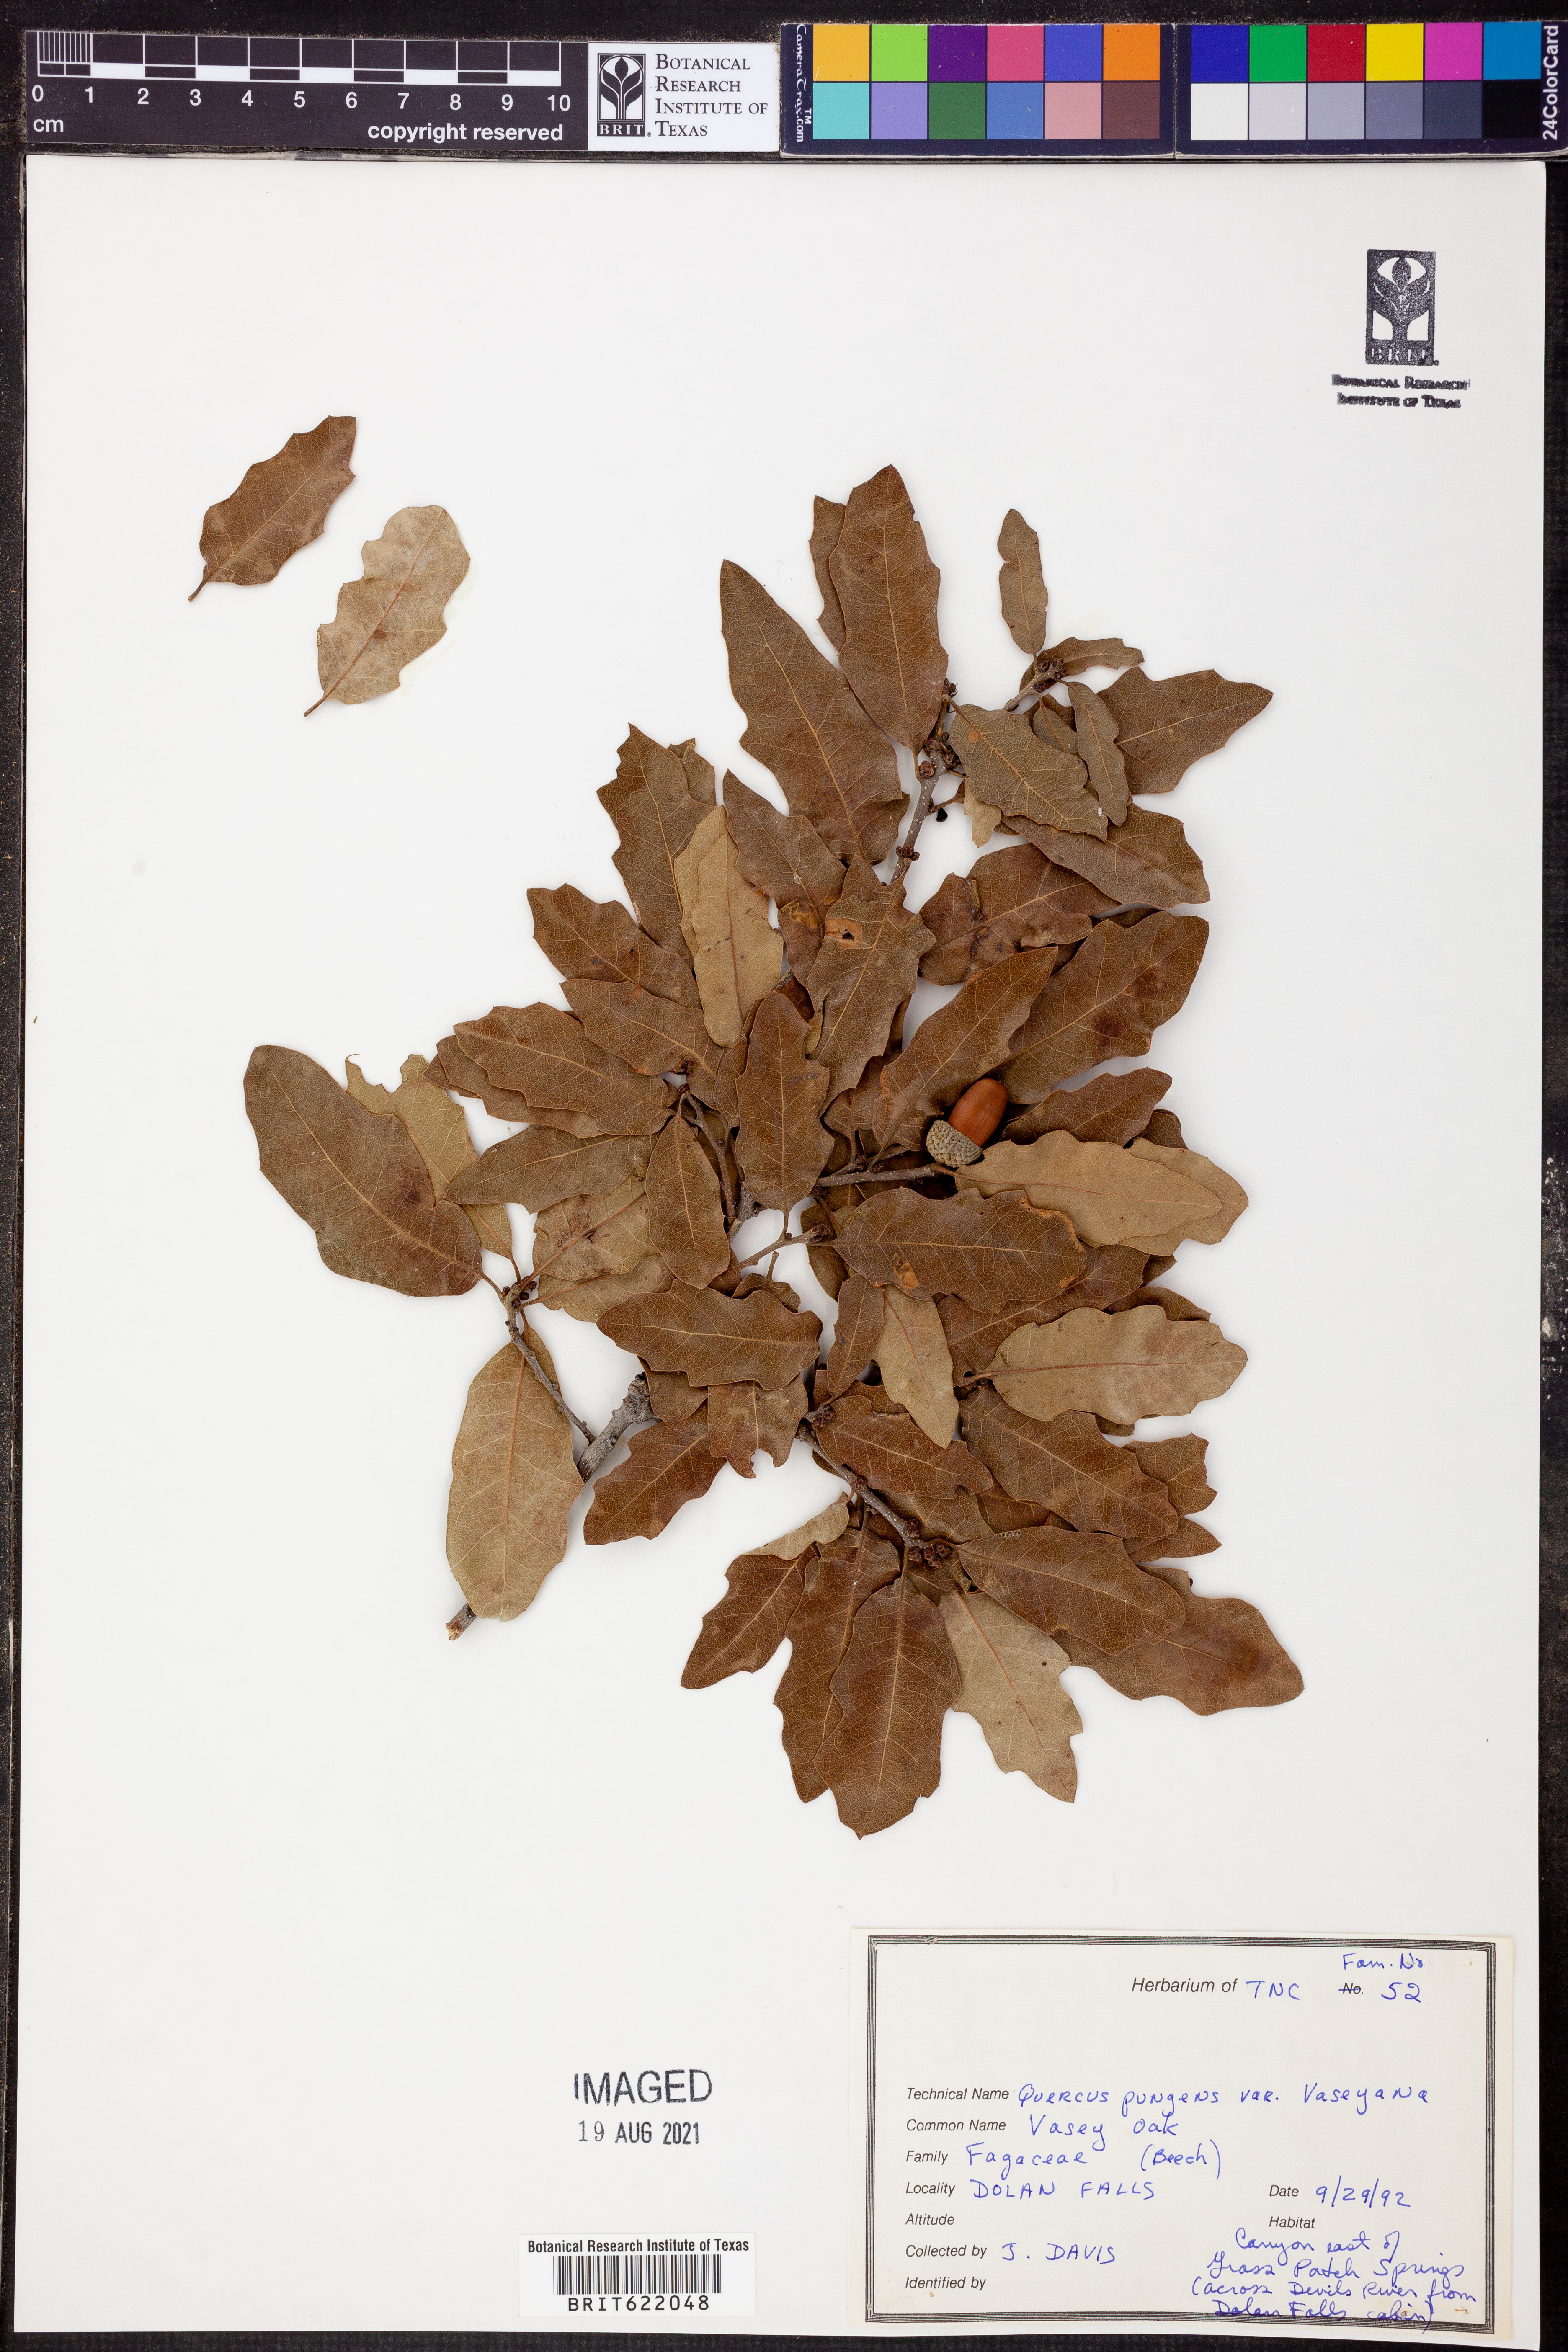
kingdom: Plantae
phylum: Tracheophyta
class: Magnoliopsida
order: Fagales
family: Fagaceae
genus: Quercus
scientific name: Quercus vaseyana
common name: Sandpaper oak
